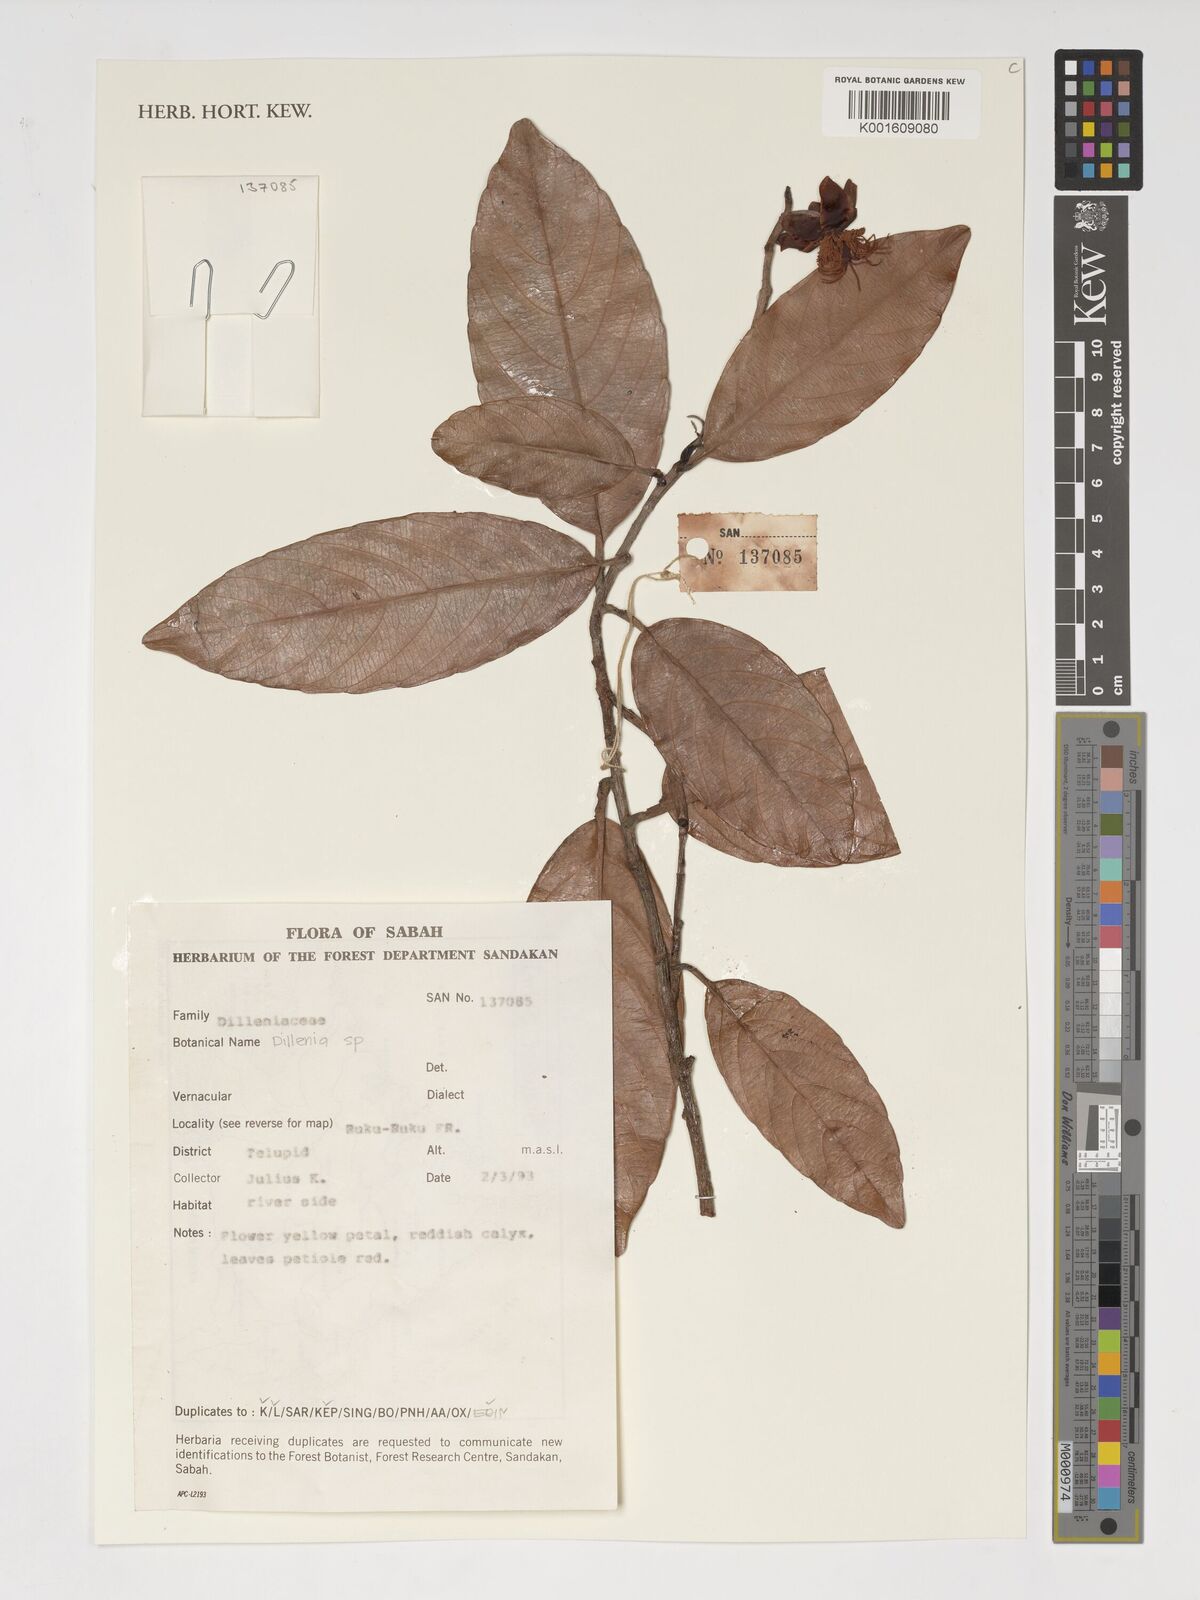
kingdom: Plantae
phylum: Tracheophyta
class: Magnoliopsida
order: Dilleniales
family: Dilleniaceae
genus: Dillenia
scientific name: Dillenia
